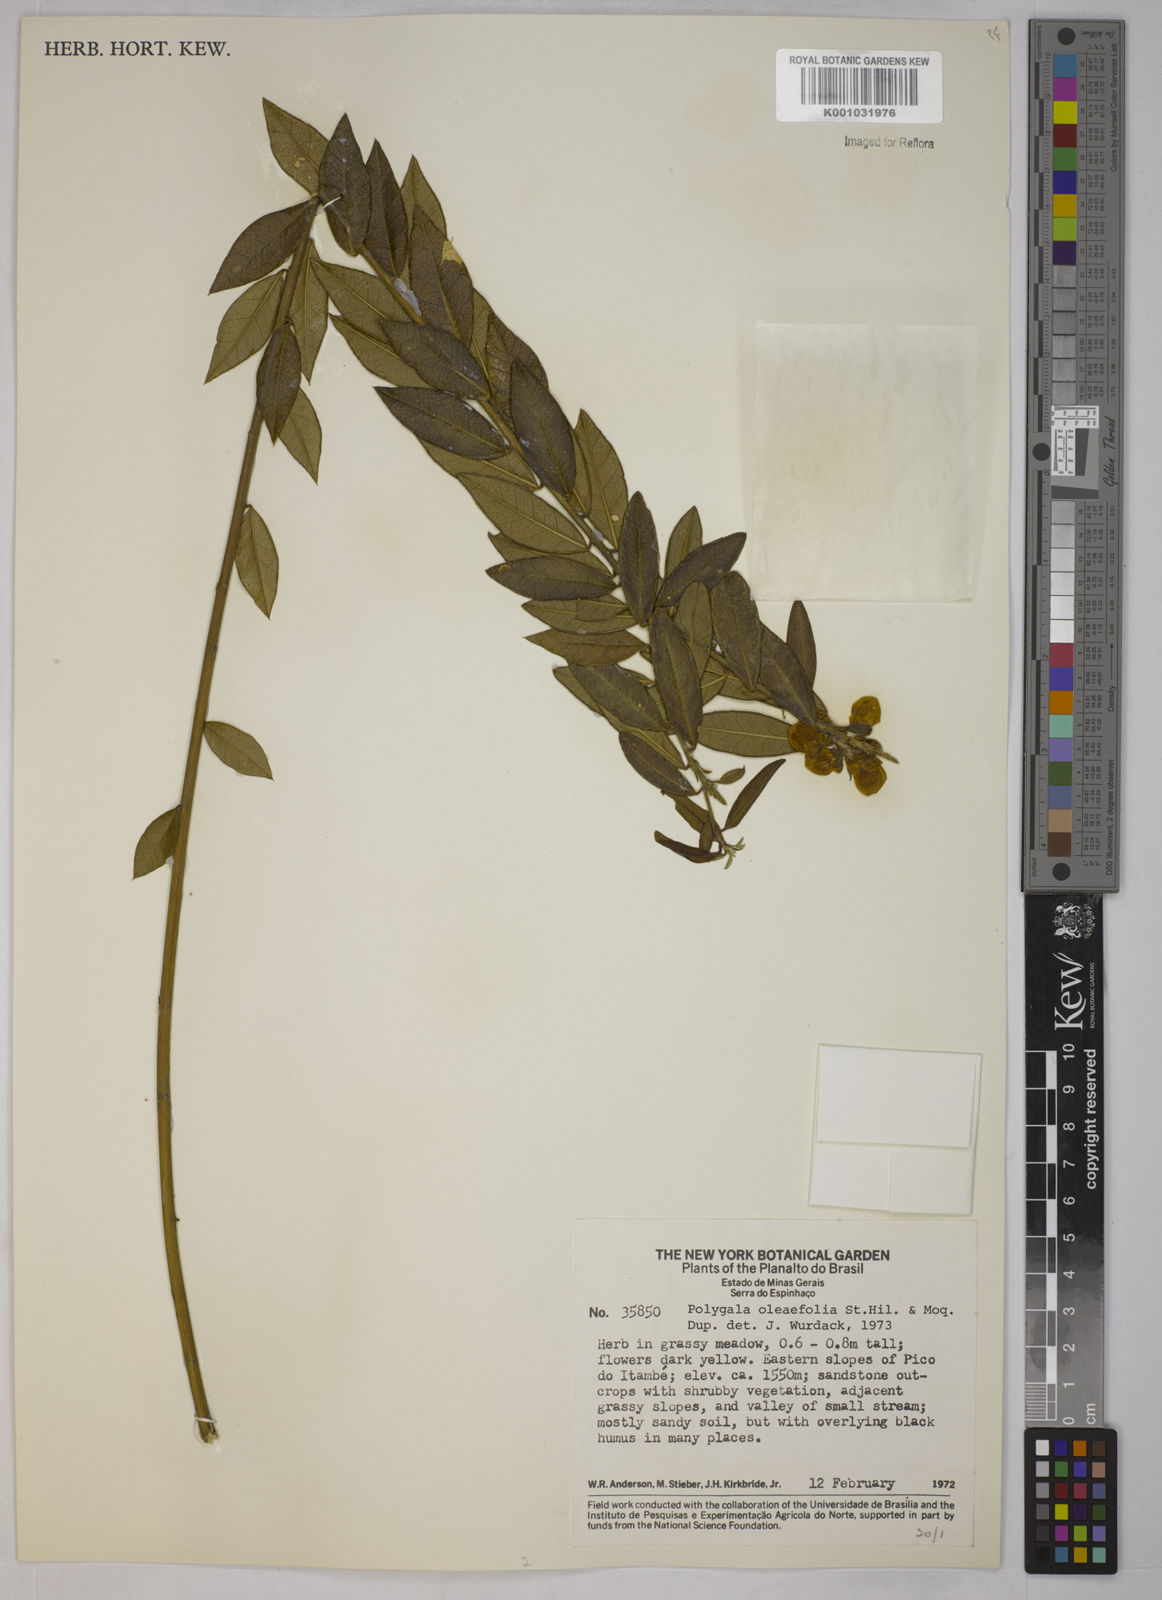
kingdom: Plantae
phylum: Tracheophyta
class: Magnoliopsida
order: Fabales
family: Polygalaceae
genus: Caamembeca
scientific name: Caamembeca oleifolia
